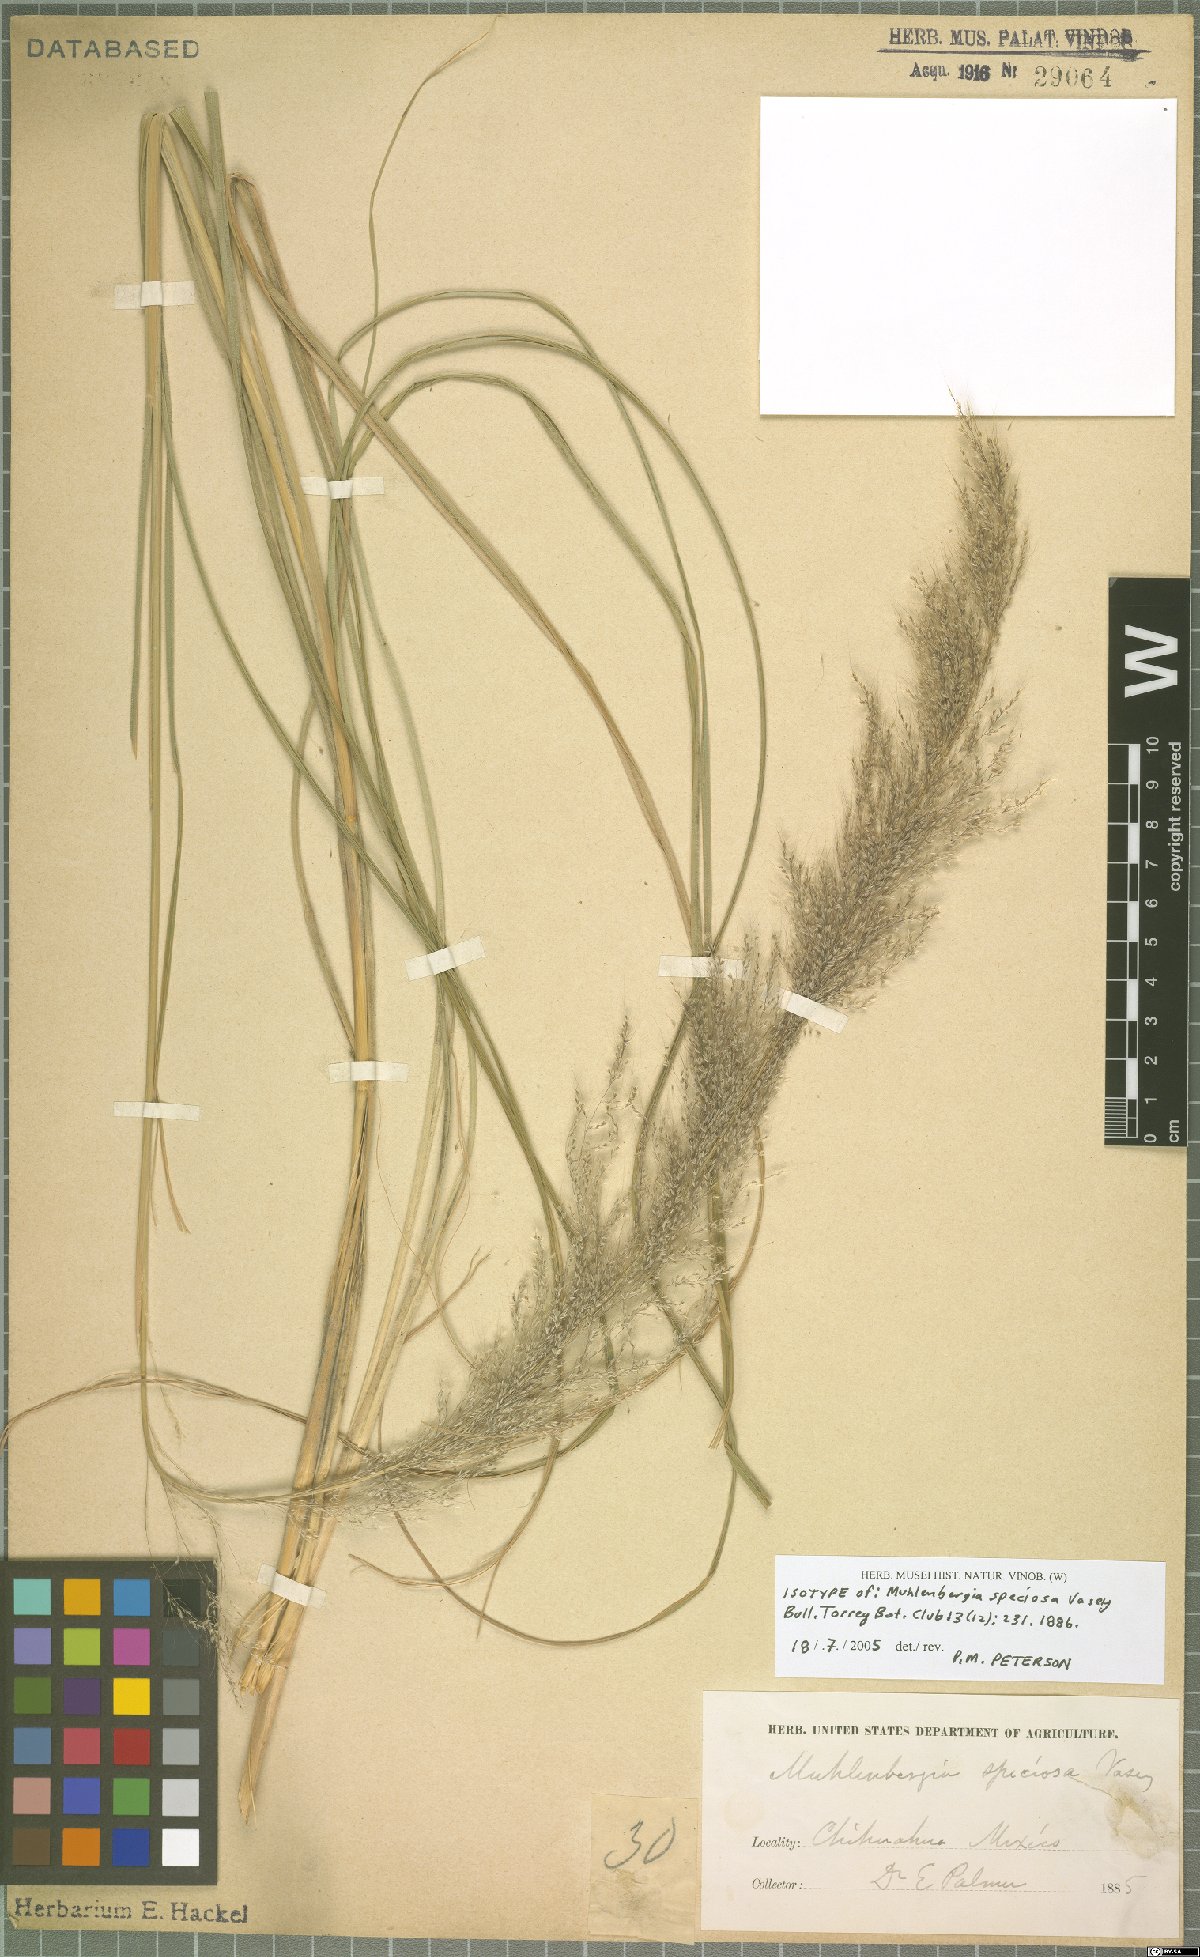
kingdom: Plantae
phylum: Tracheophyta
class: Liliopsida
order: Poales
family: Poaceae
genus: Muhlenbergia
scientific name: Muhlenbergia speciosa
